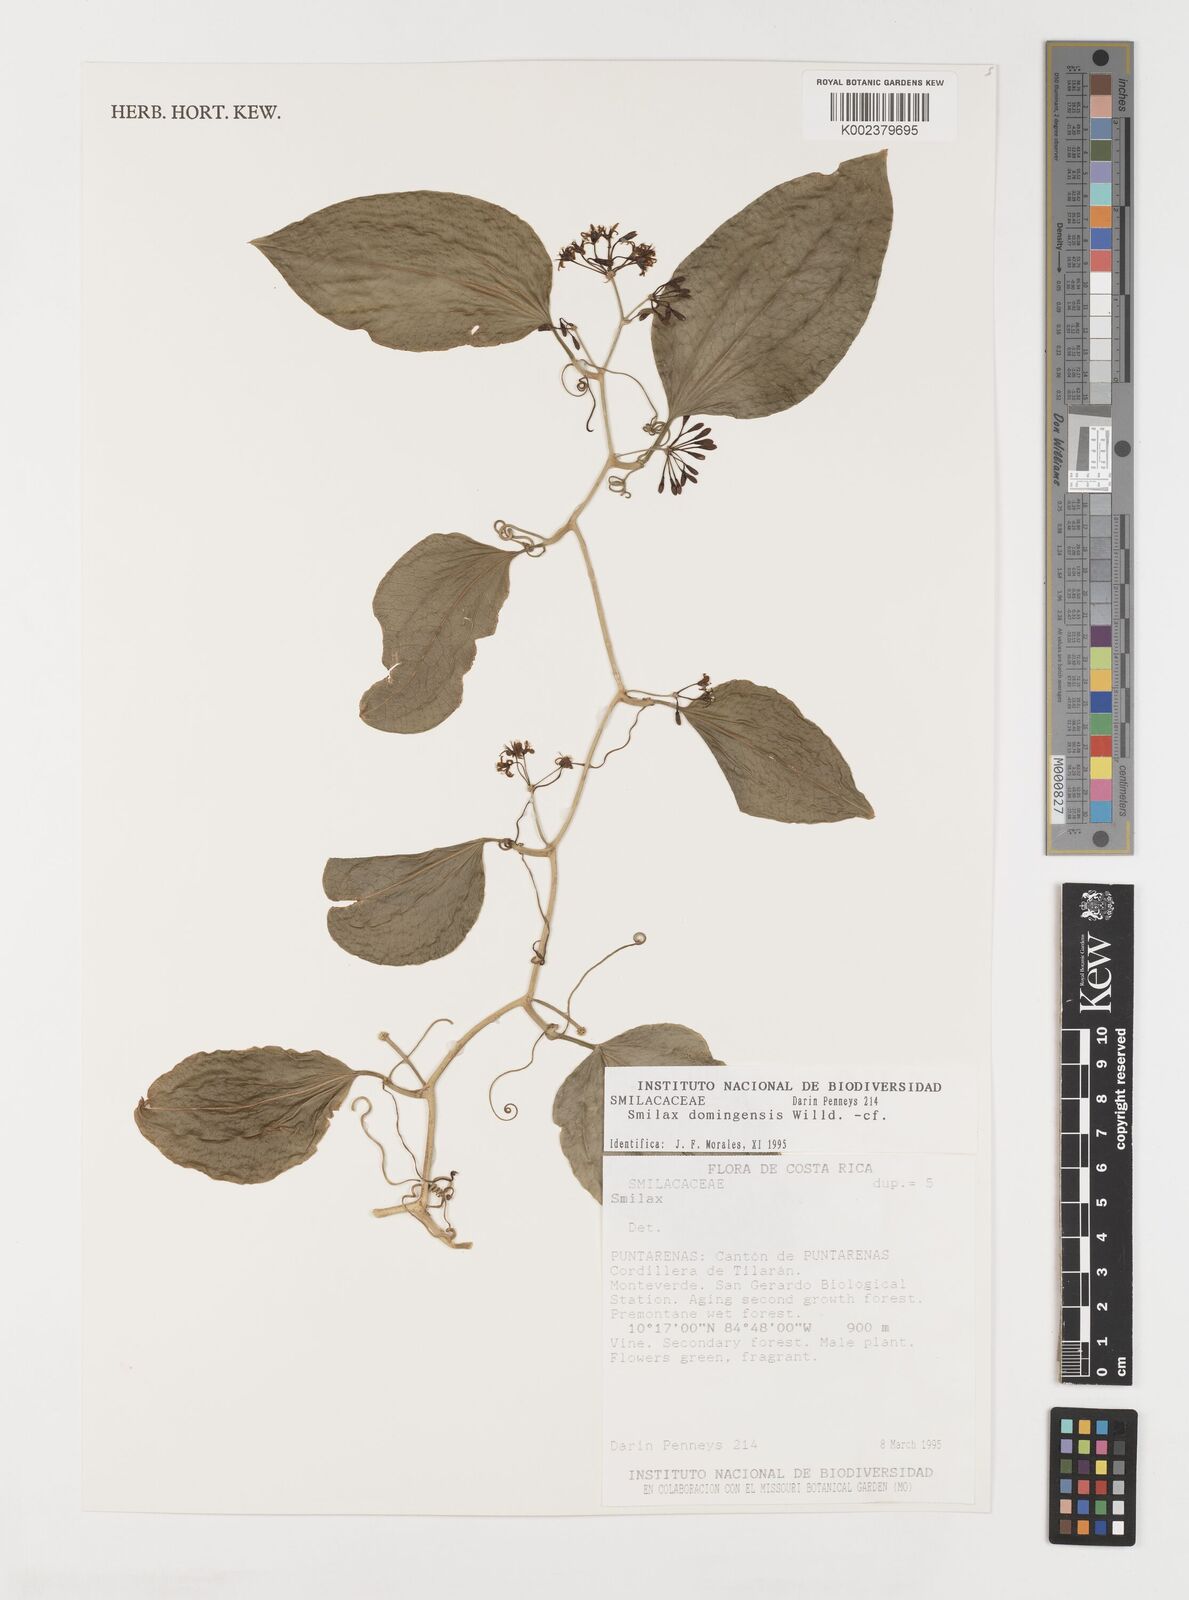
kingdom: Plantae
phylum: Tracheophyta
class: Liliopsida
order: Liliales
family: Smilacaceae
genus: Smilax
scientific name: Smilax domingensis
